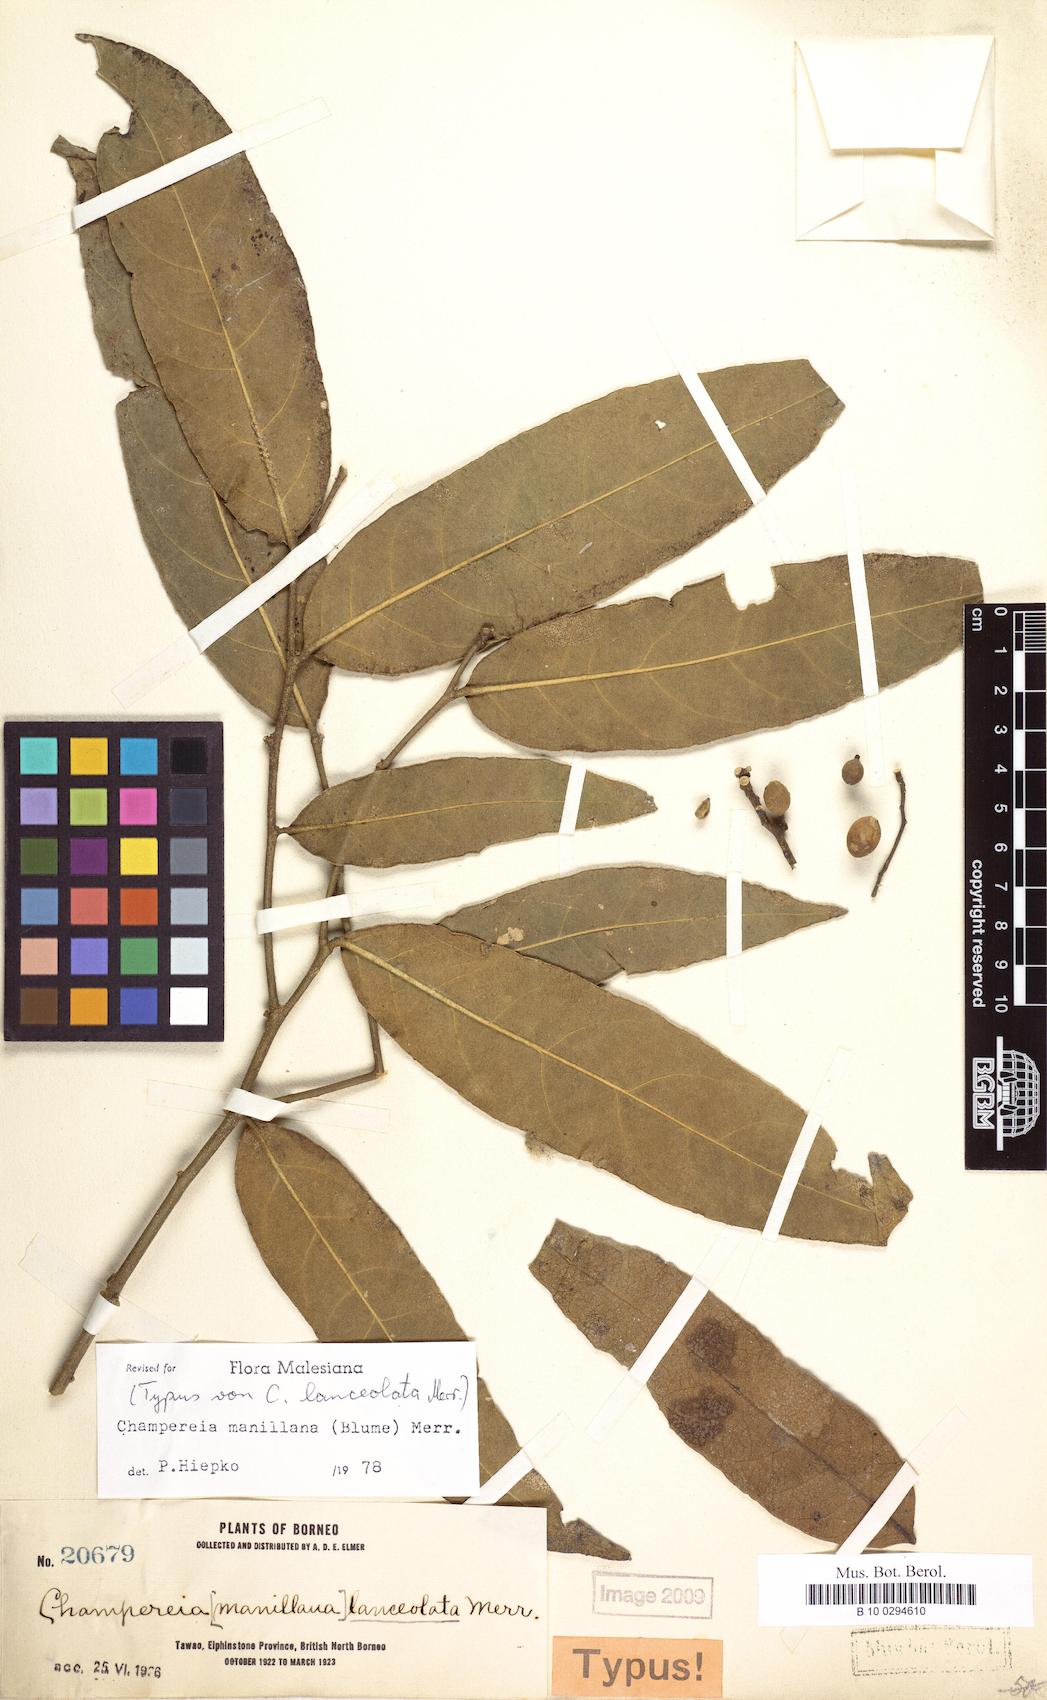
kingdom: Plantae
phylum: Tracheophyta
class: Magnoliopsida
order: Santalales
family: Opiliaceae
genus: Champereia
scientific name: Champereia manillana
